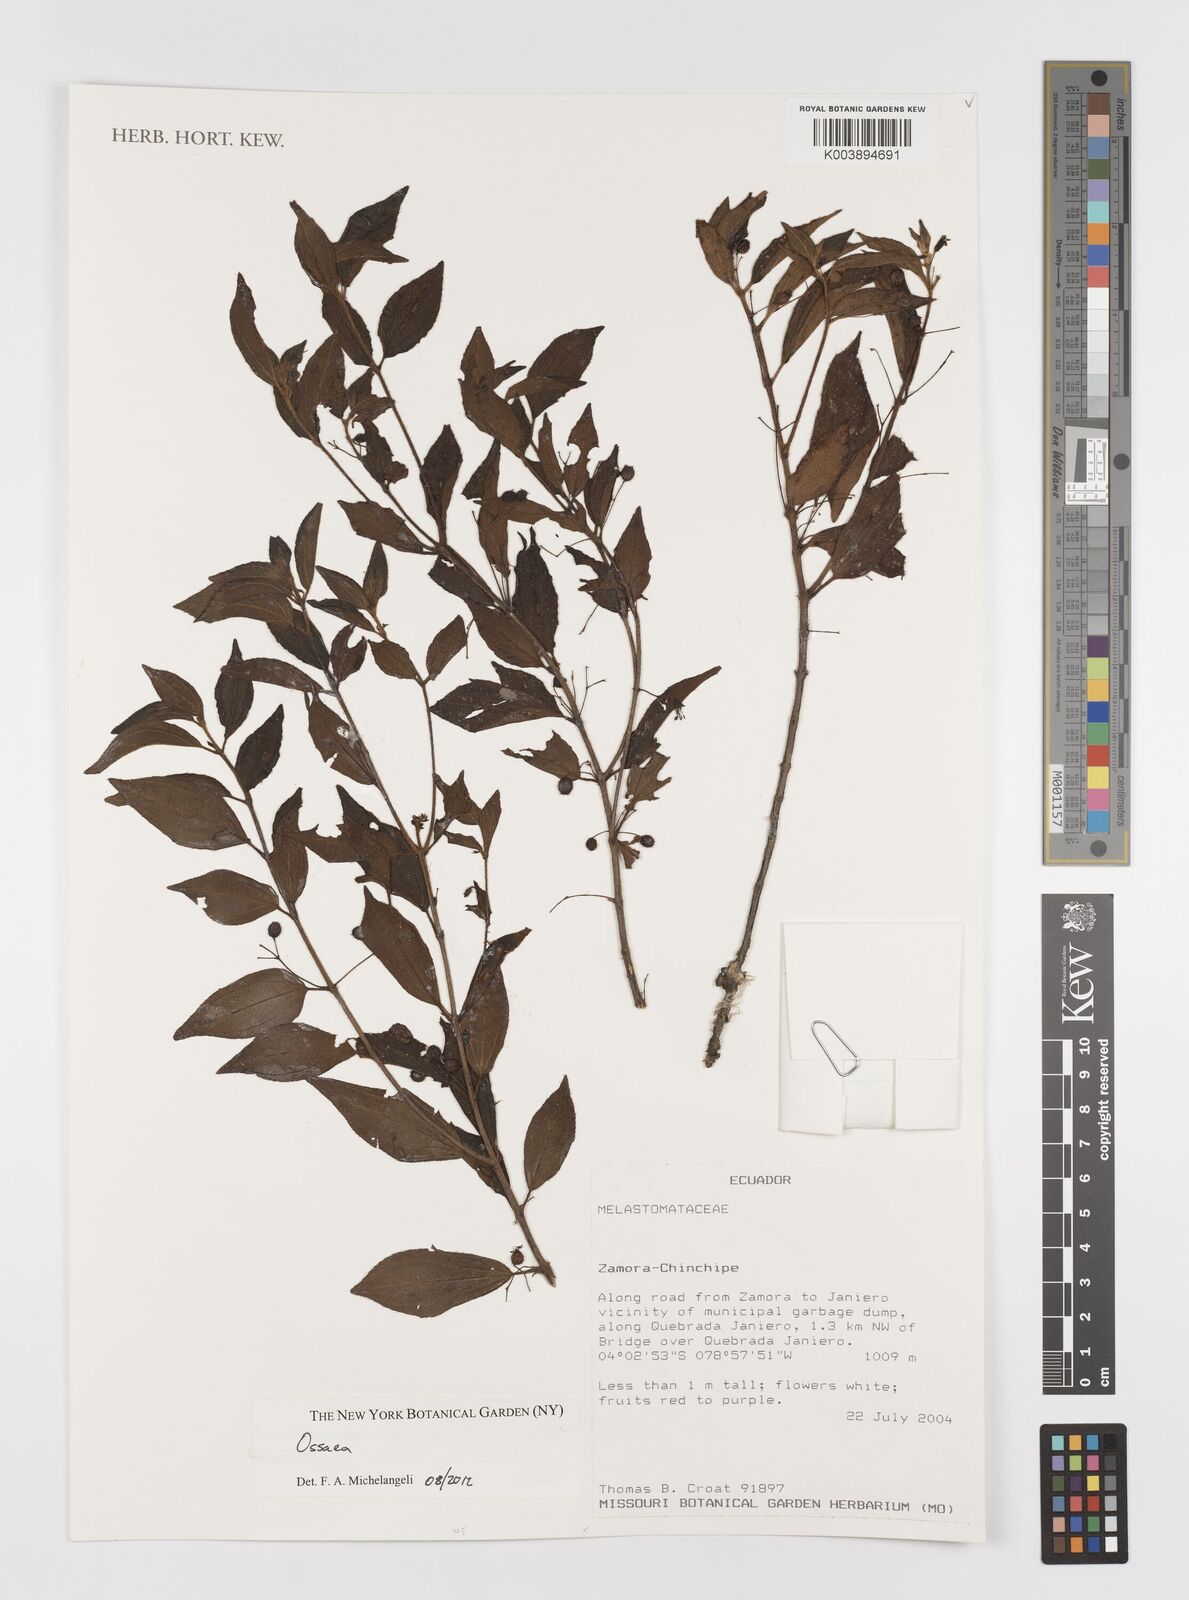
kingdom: Plantae
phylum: Tracheophyta
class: Magnoliopsida
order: Myrtales
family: Melastomataceae
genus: Ossaea
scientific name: Ossaea
